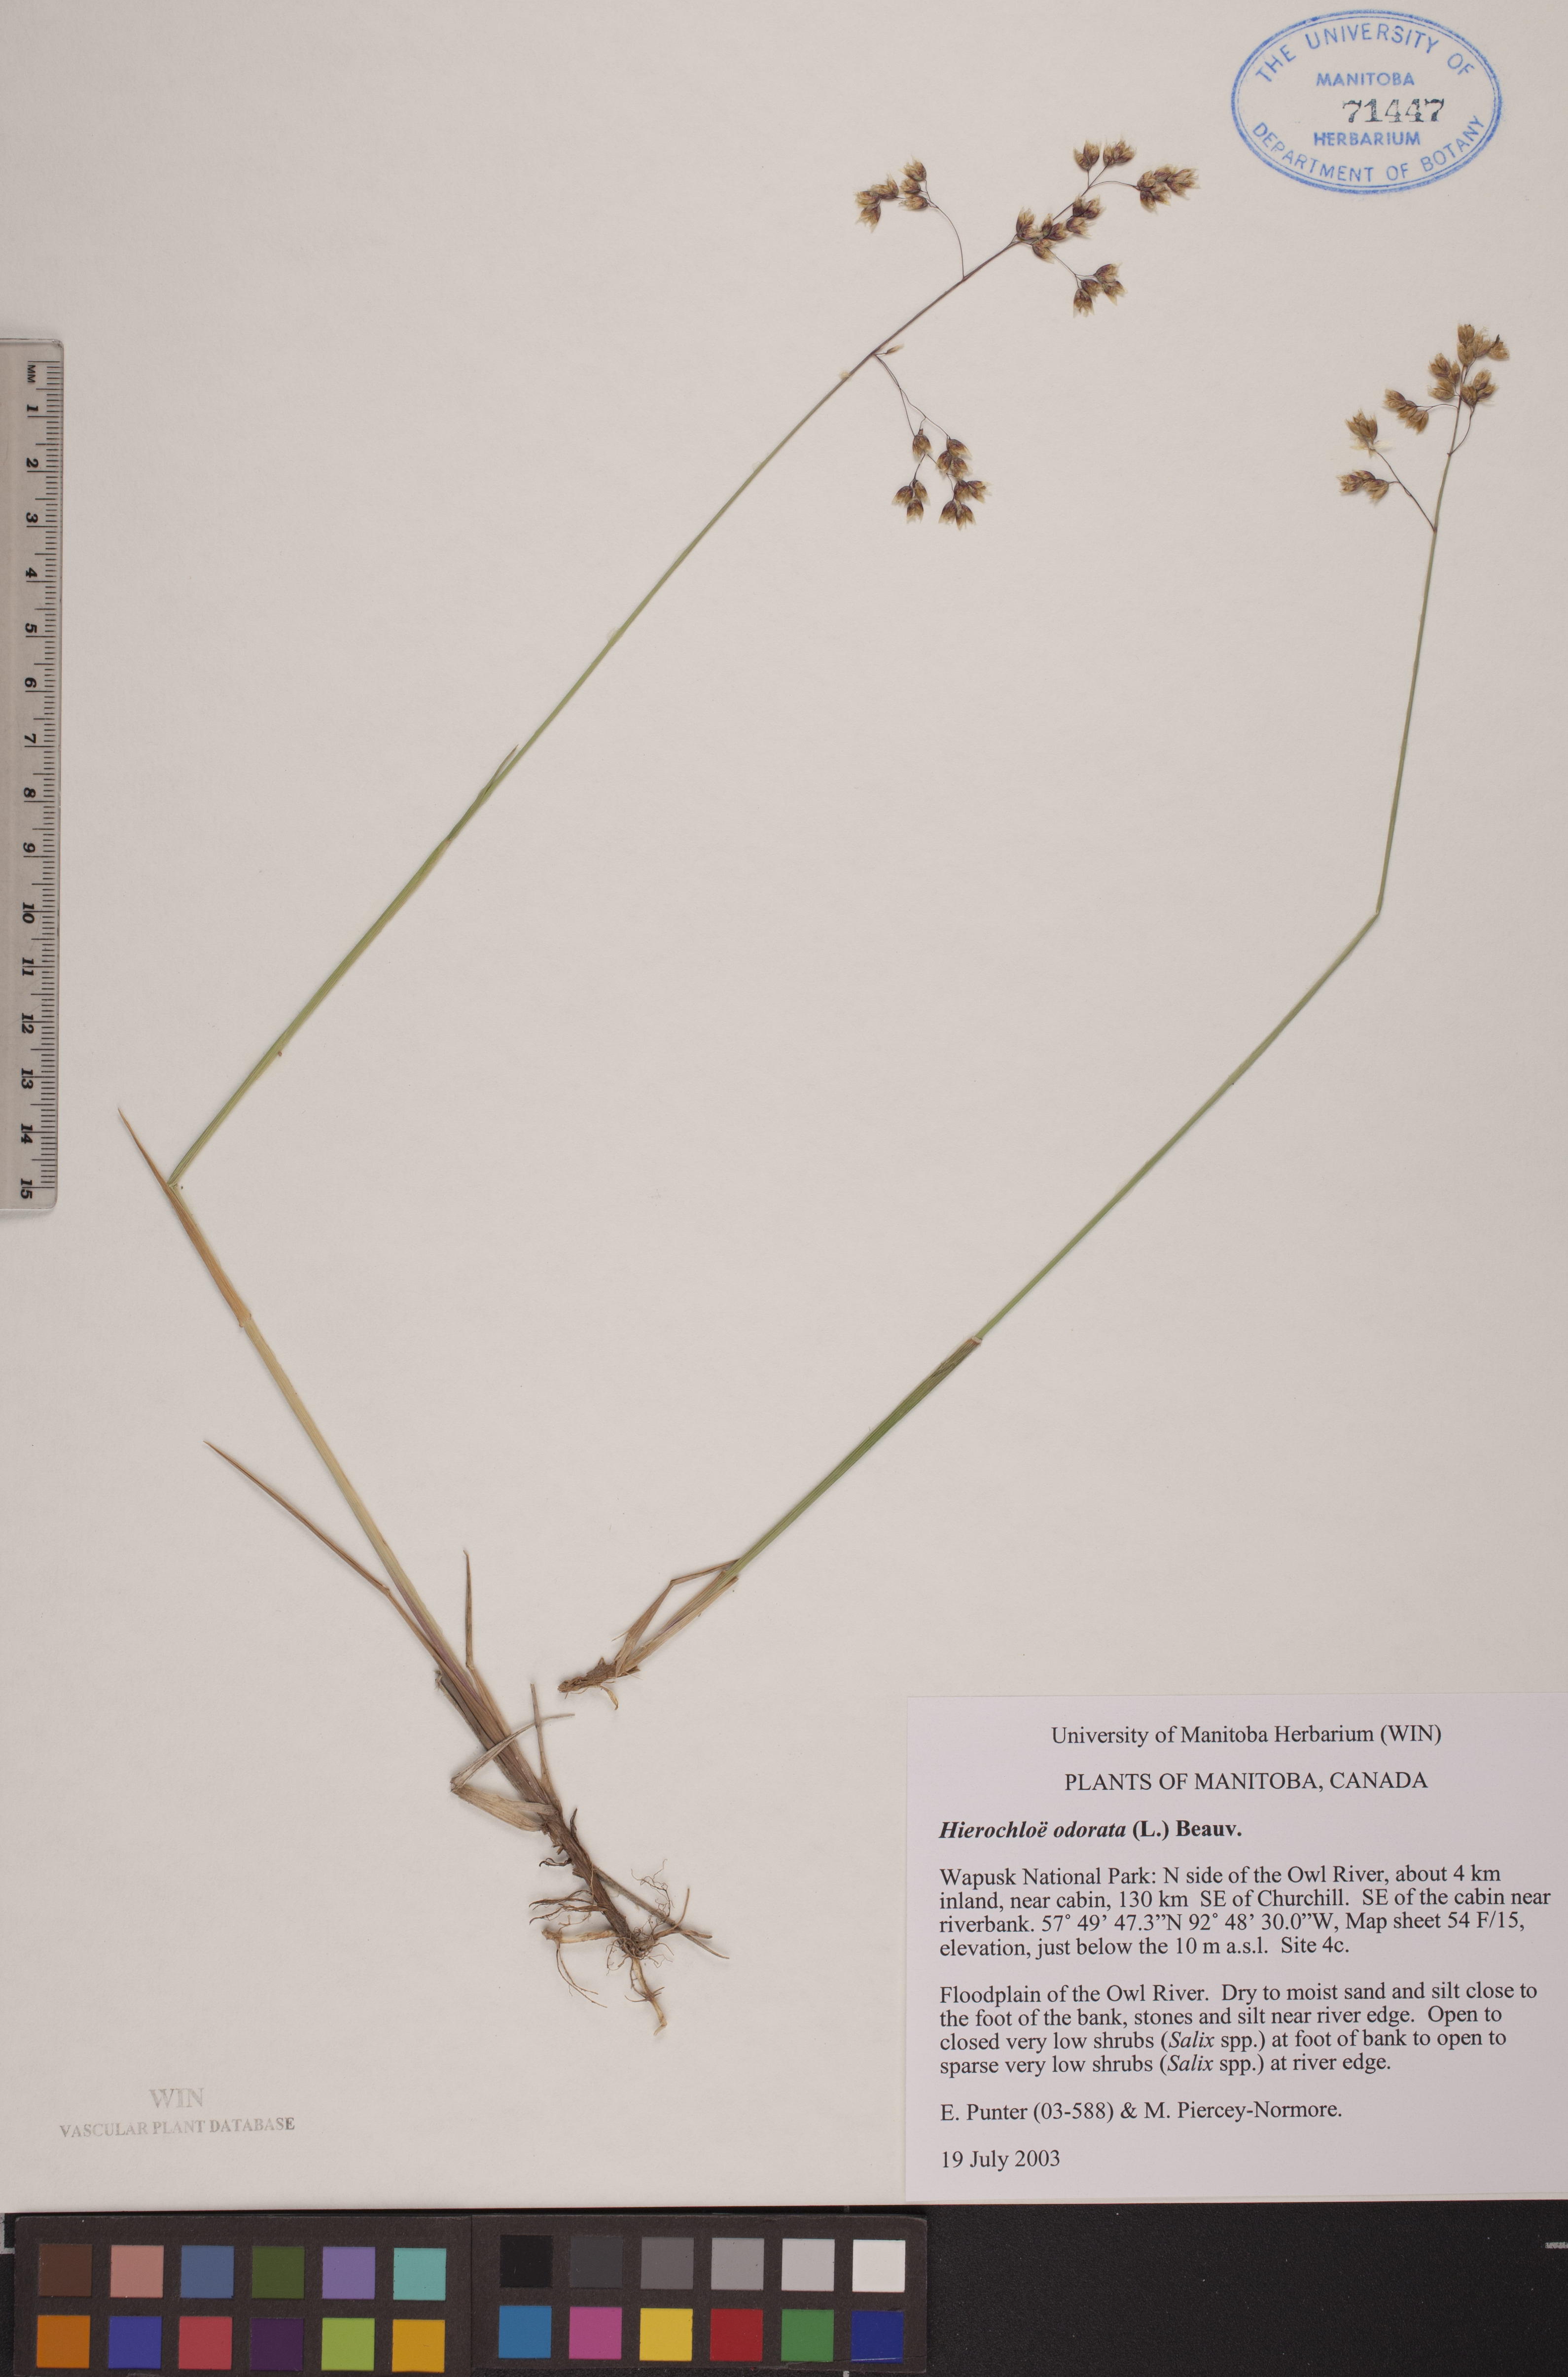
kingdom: Plantae
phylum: Tracheophyta
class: Liliopsida
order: Poales
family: Poaceae
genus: Anthoxanthum
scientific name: Anthoxanthum nitens
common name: Holy grass
